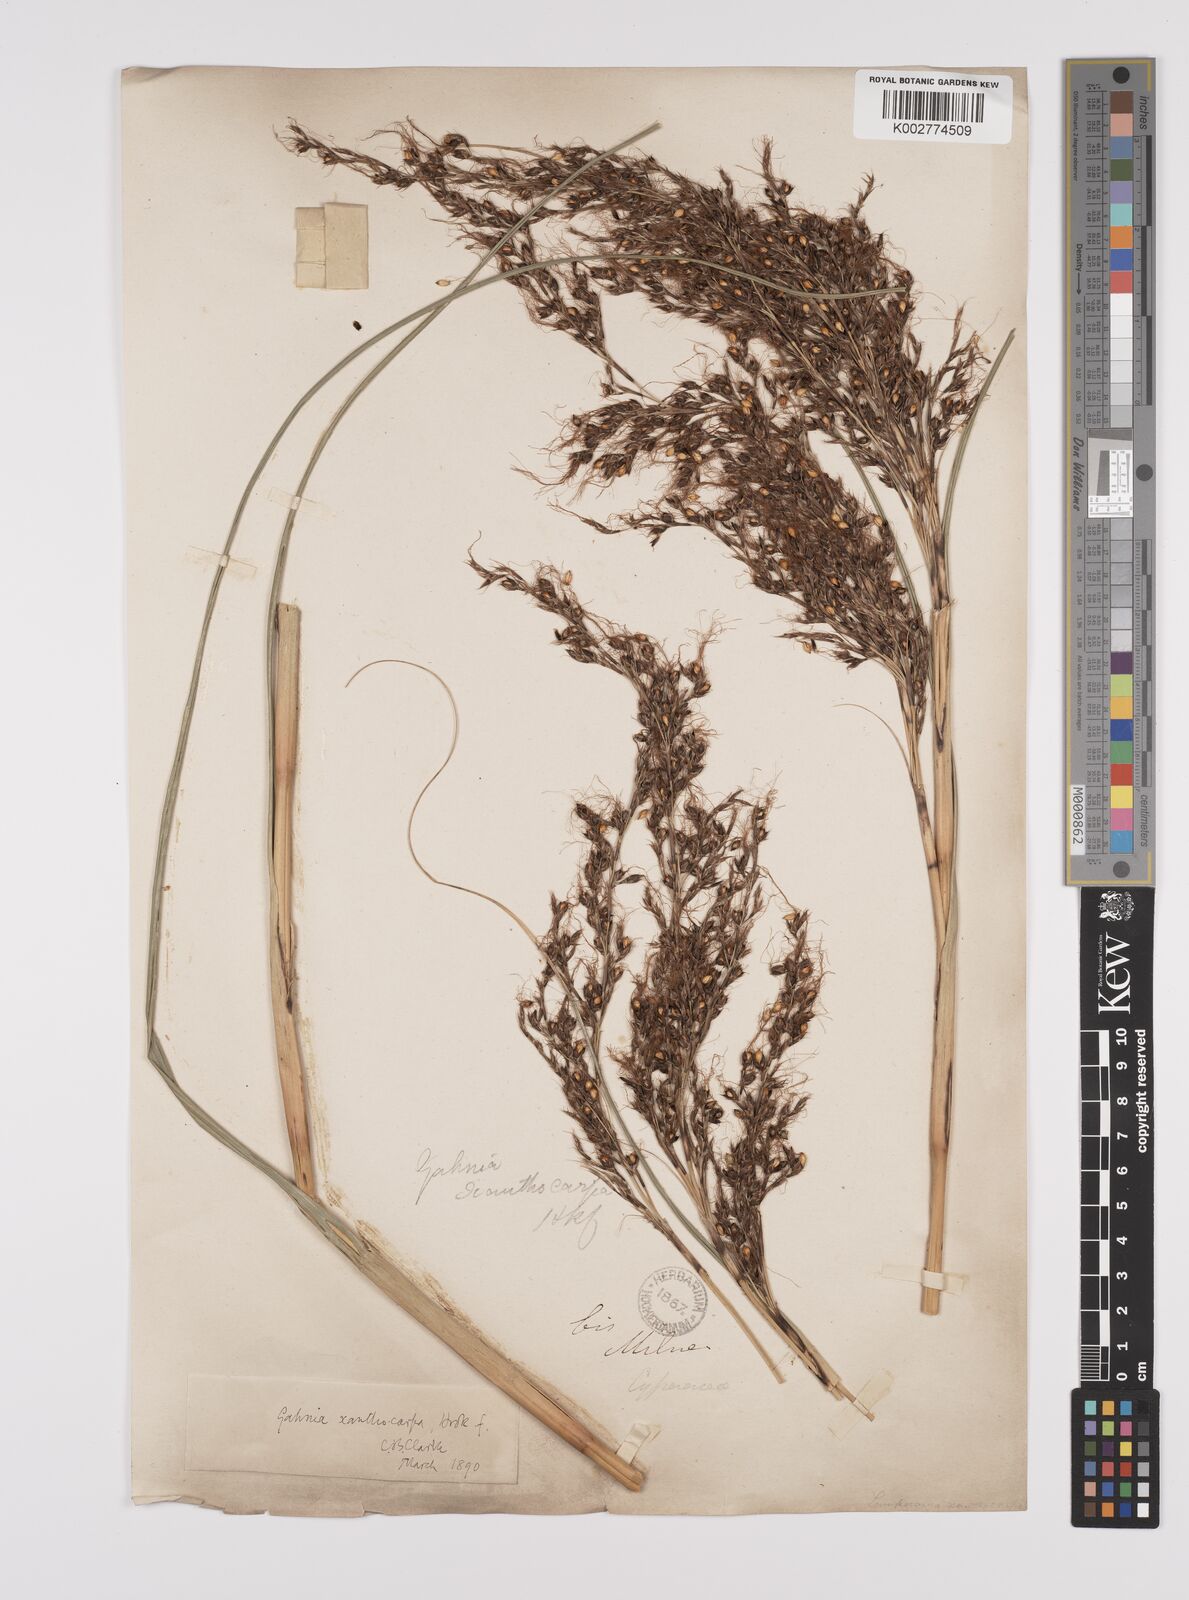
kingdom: Plantae
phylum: Tracheophyta
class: Liliopsida
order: Poales
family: Cyperaceae
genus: Gahnia
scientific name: Gahnia xanthocarpa
